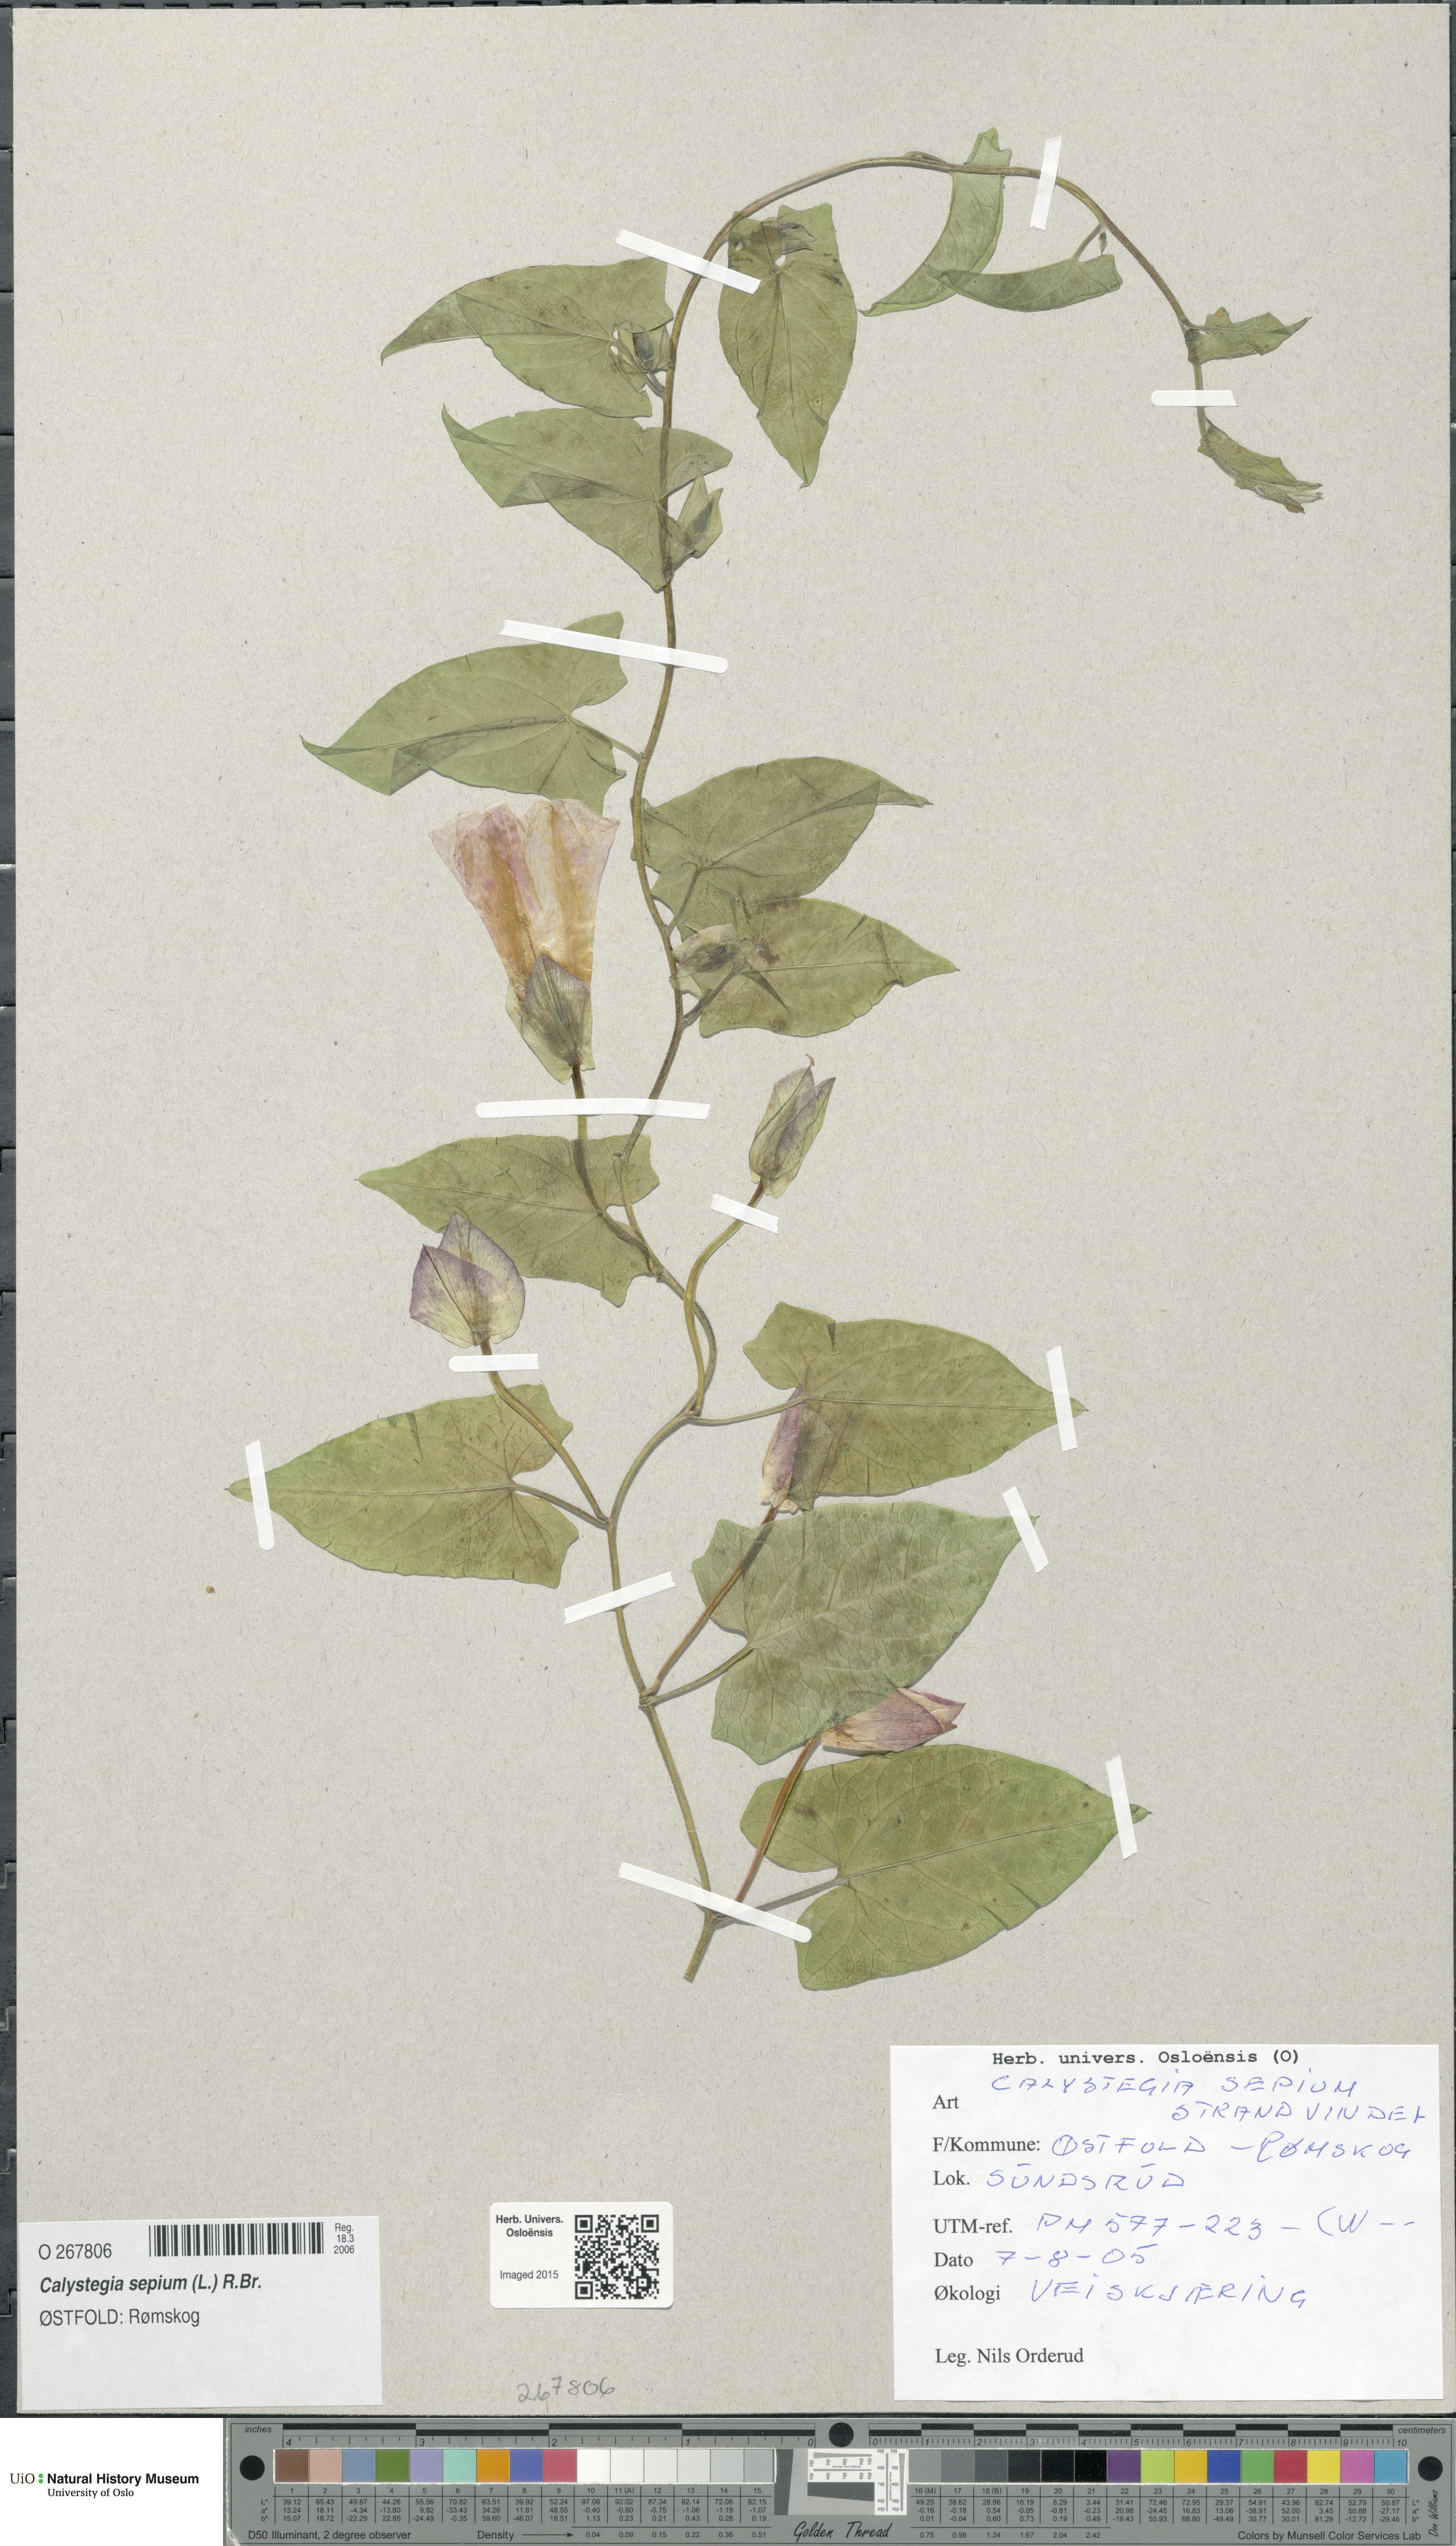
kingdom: Plantae
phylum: Tracheophyta
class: Magnoliopsida
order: Solanales
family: Convolvulaceae
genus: Calystegia
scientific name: Calystegia sepium
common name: Hedge bindweed
